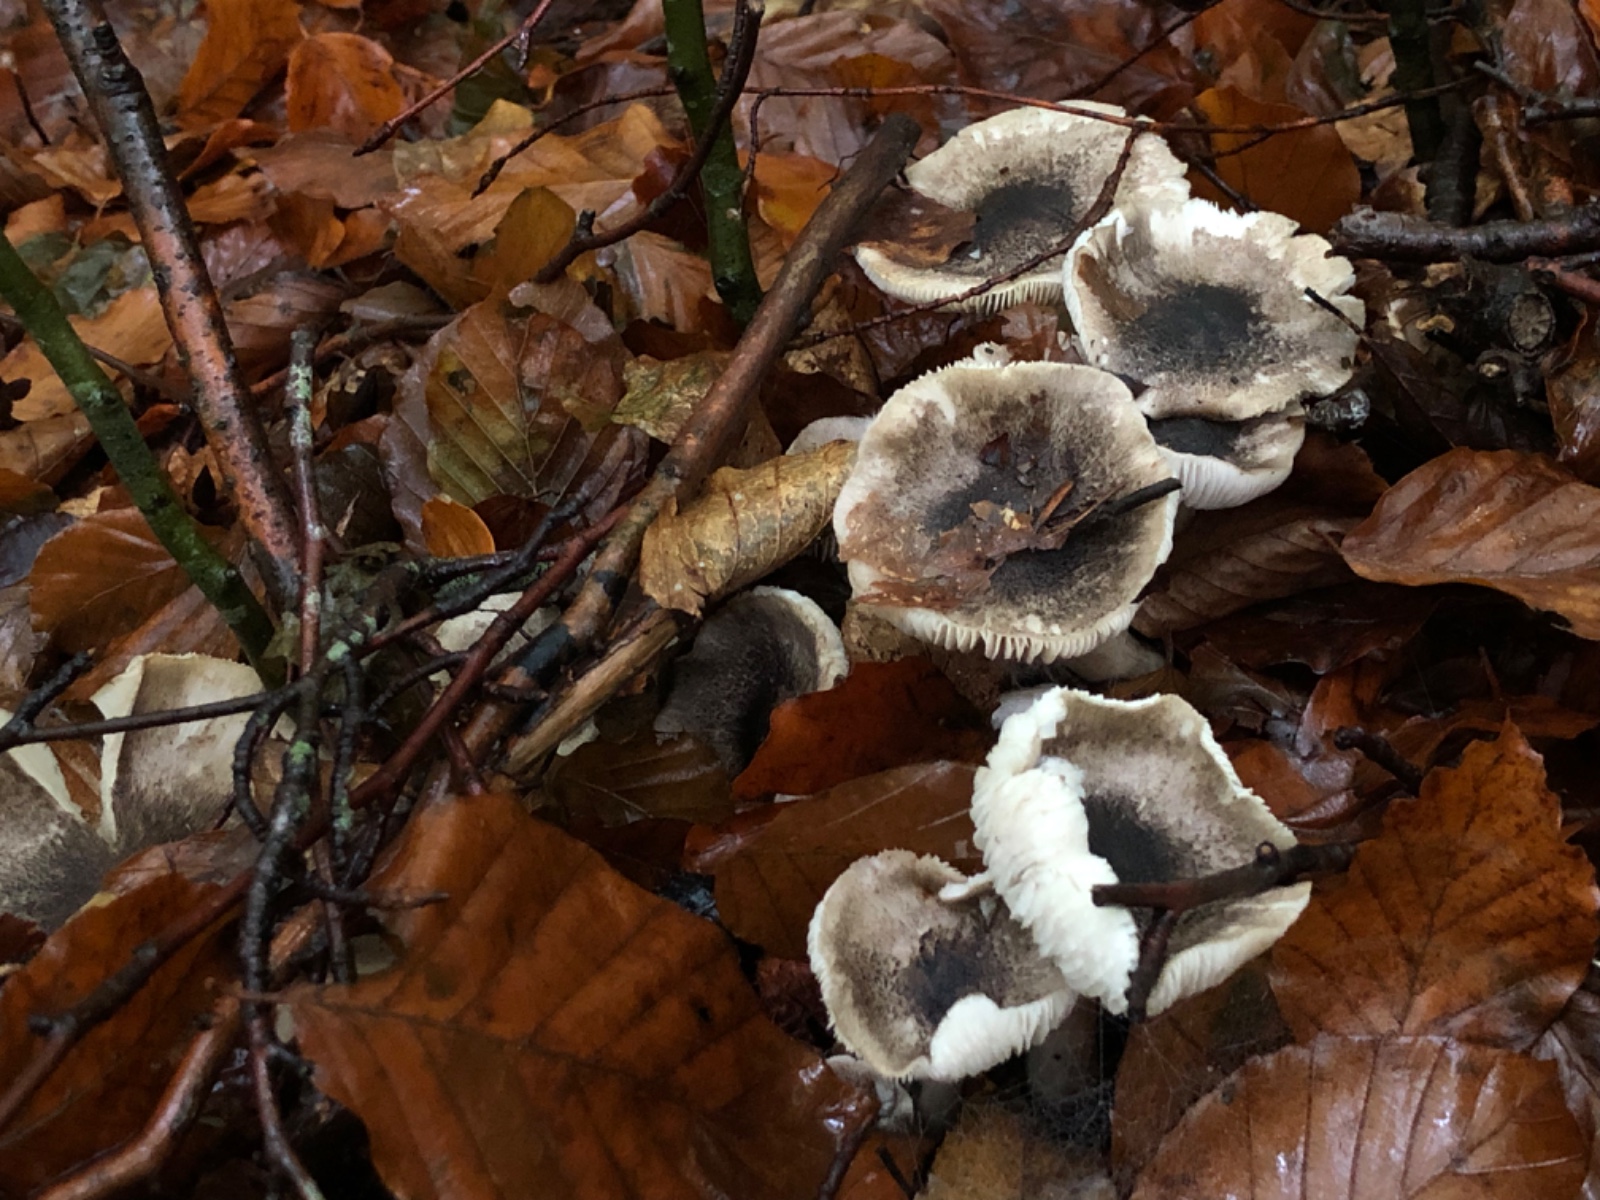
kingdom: Fungi
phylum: Basidiomycota
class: Agaricomycetes
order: Agaricales
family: Tricholomataceae
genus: Tricholoma
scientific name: Tricholoma
